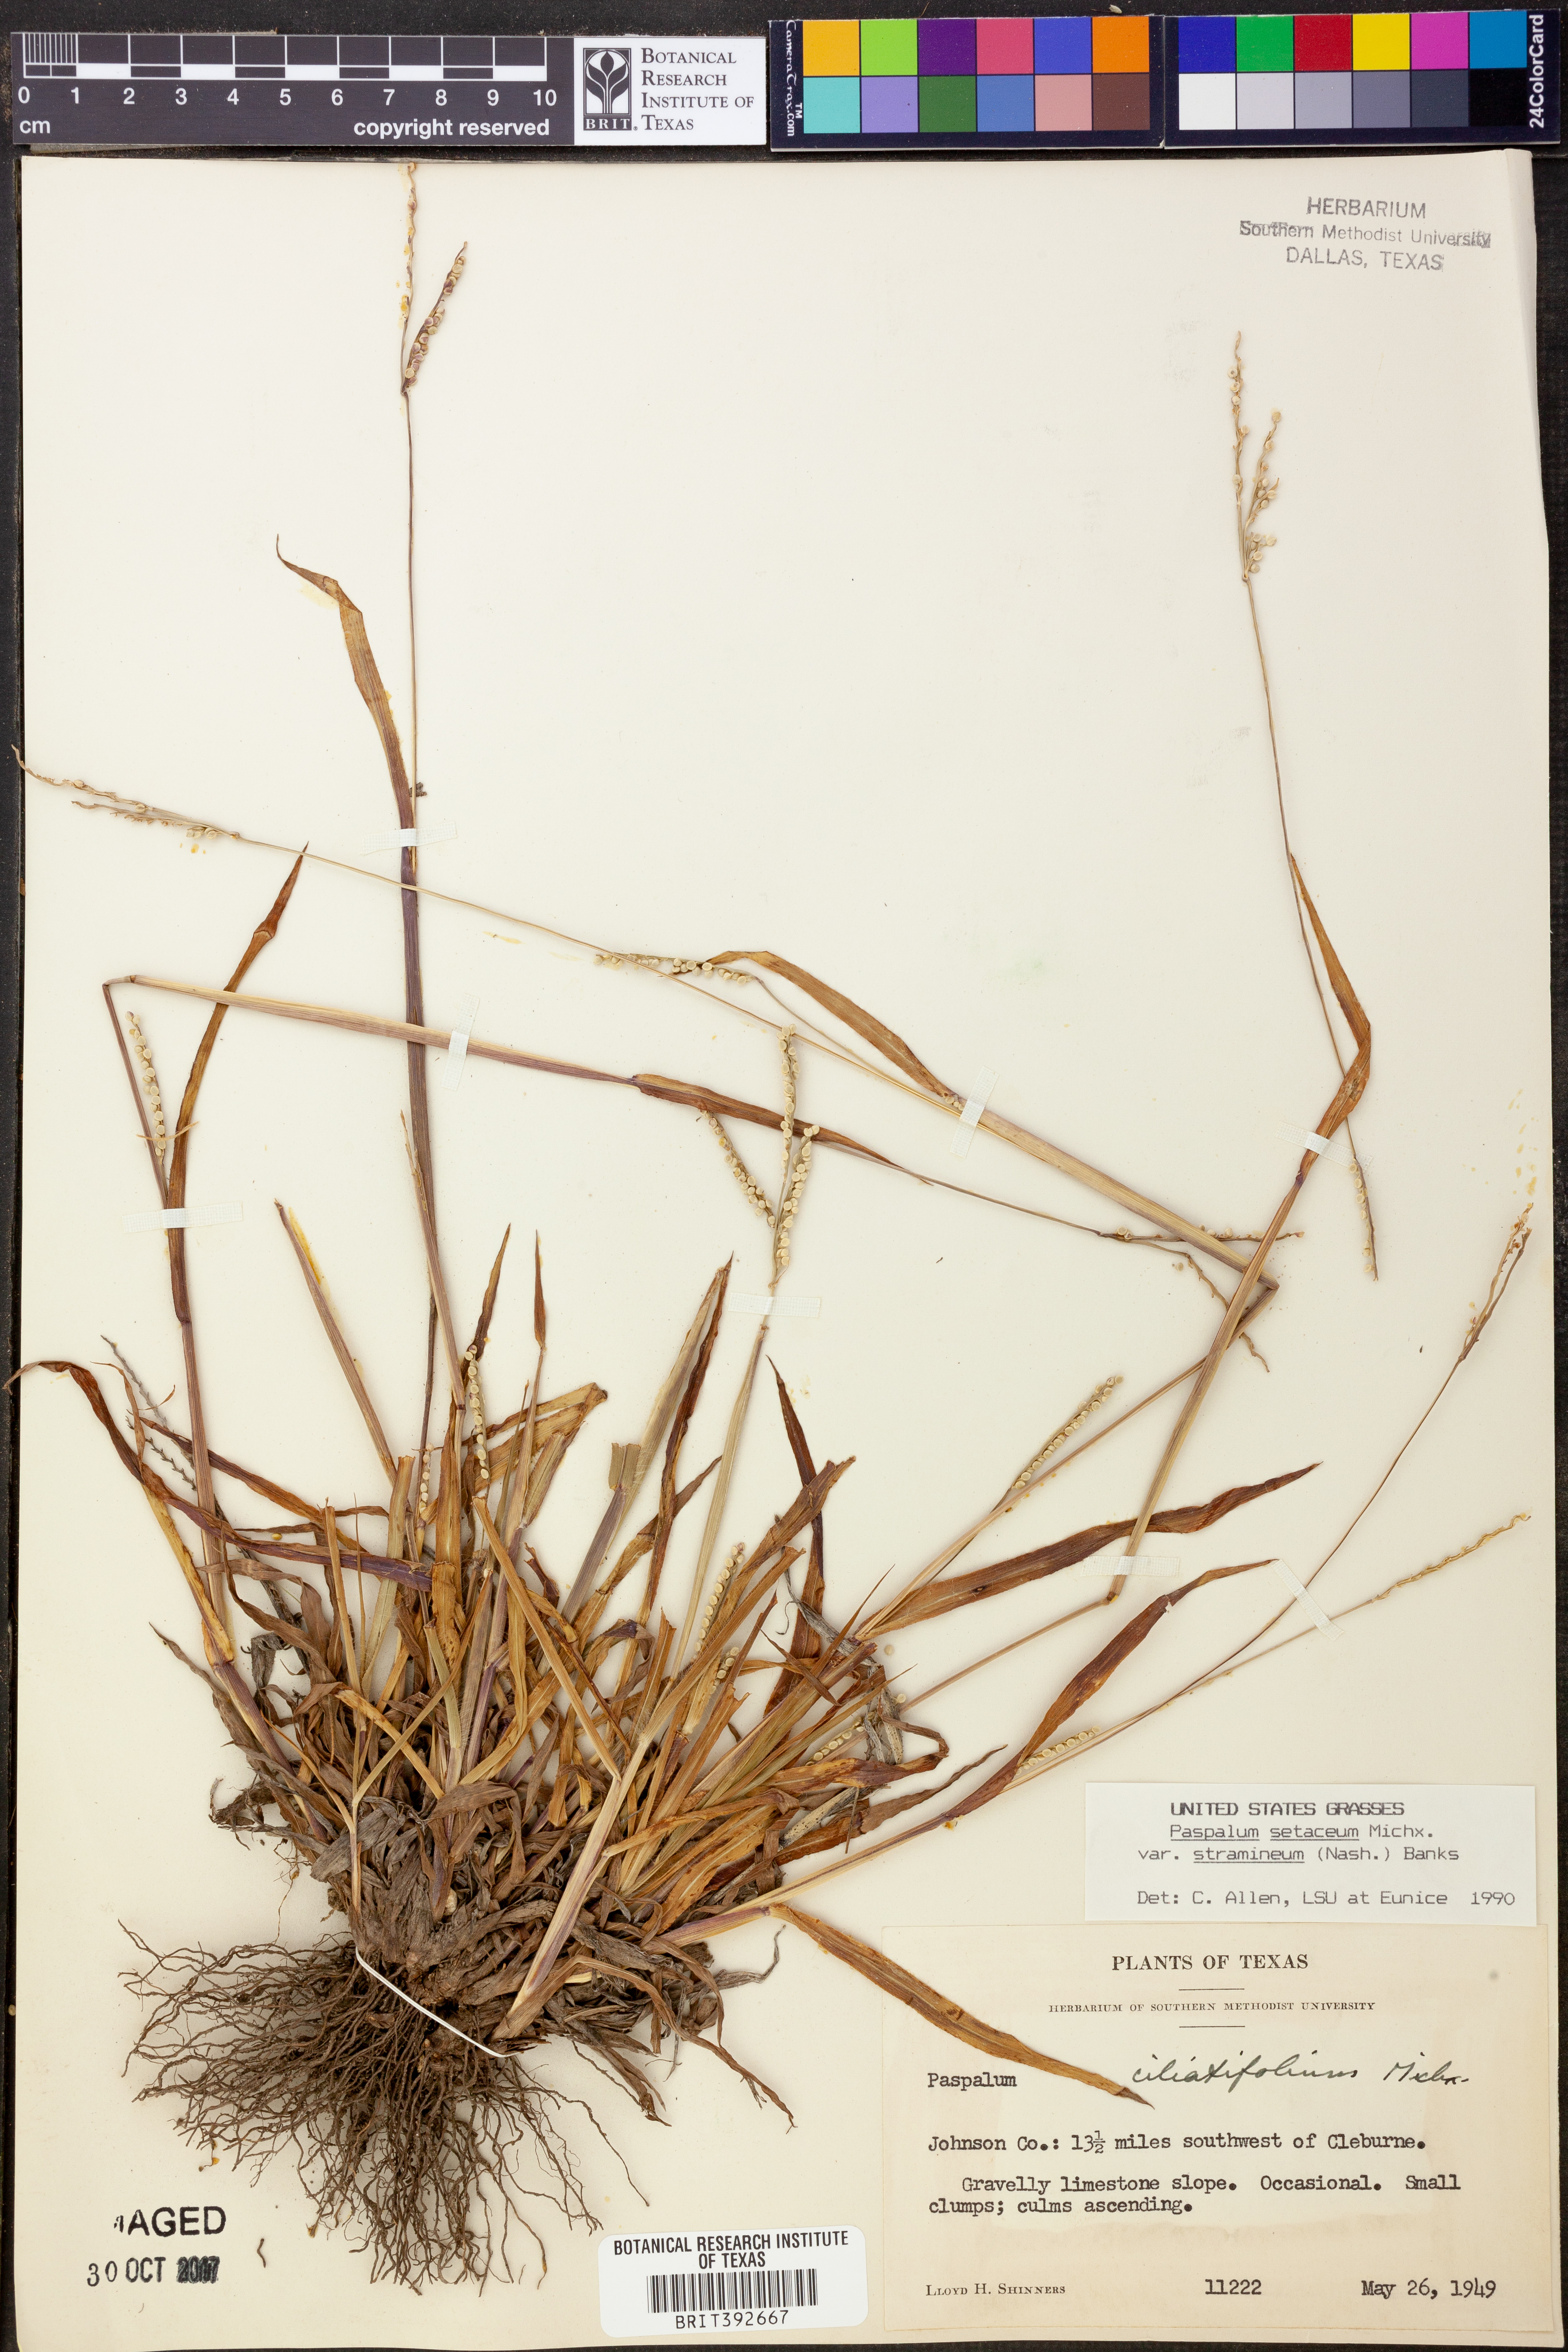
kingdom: Plantae
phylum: Tracheophyta
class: Liliopsida
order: Poales
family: Poaceae
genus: Paspalum
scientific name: Paspalum setaceum
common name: Slender paspalum
